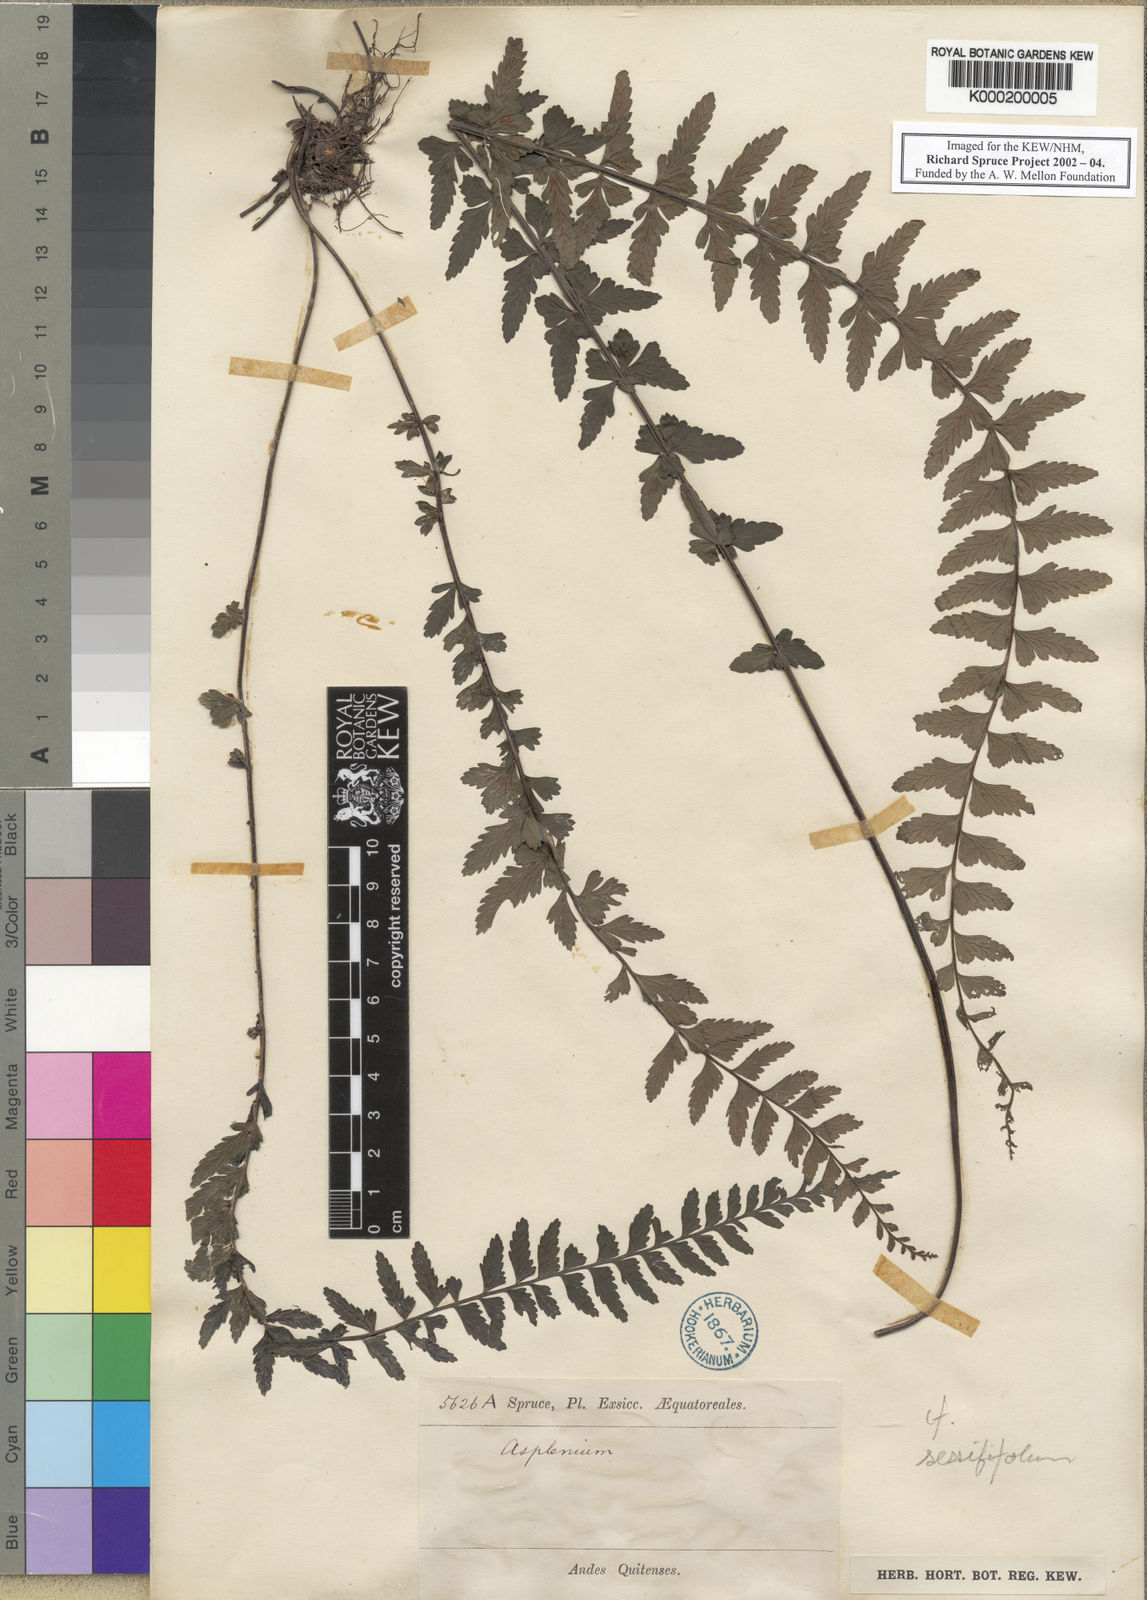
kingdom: Plantae
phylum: Tracheophyta
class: Polypodiopsida
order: Polypodiales
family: Aspleniaceae
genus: Asplenium
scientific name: Asplenium sessilifolium
